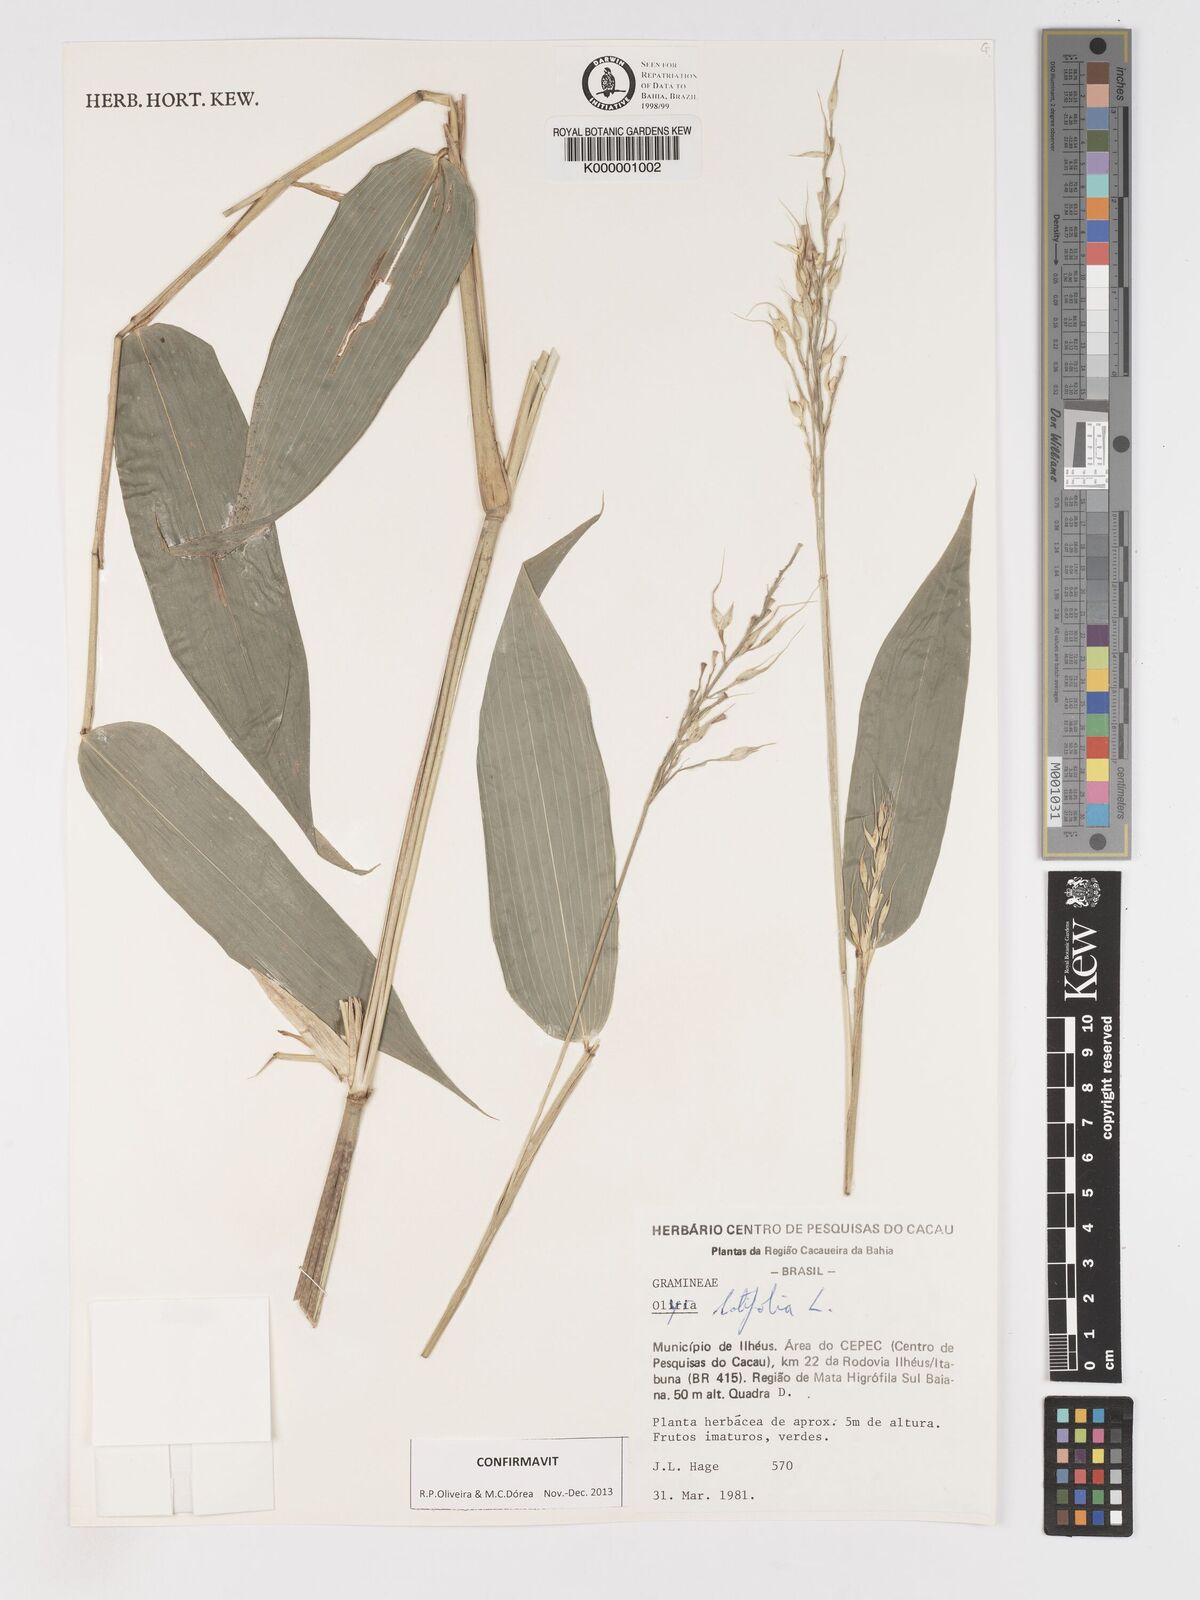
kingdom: Plantae
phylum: Tracheophyta
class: Liliopsida
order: Poales
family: Poaceae
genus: Olyra
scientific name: Olyra latifolia
